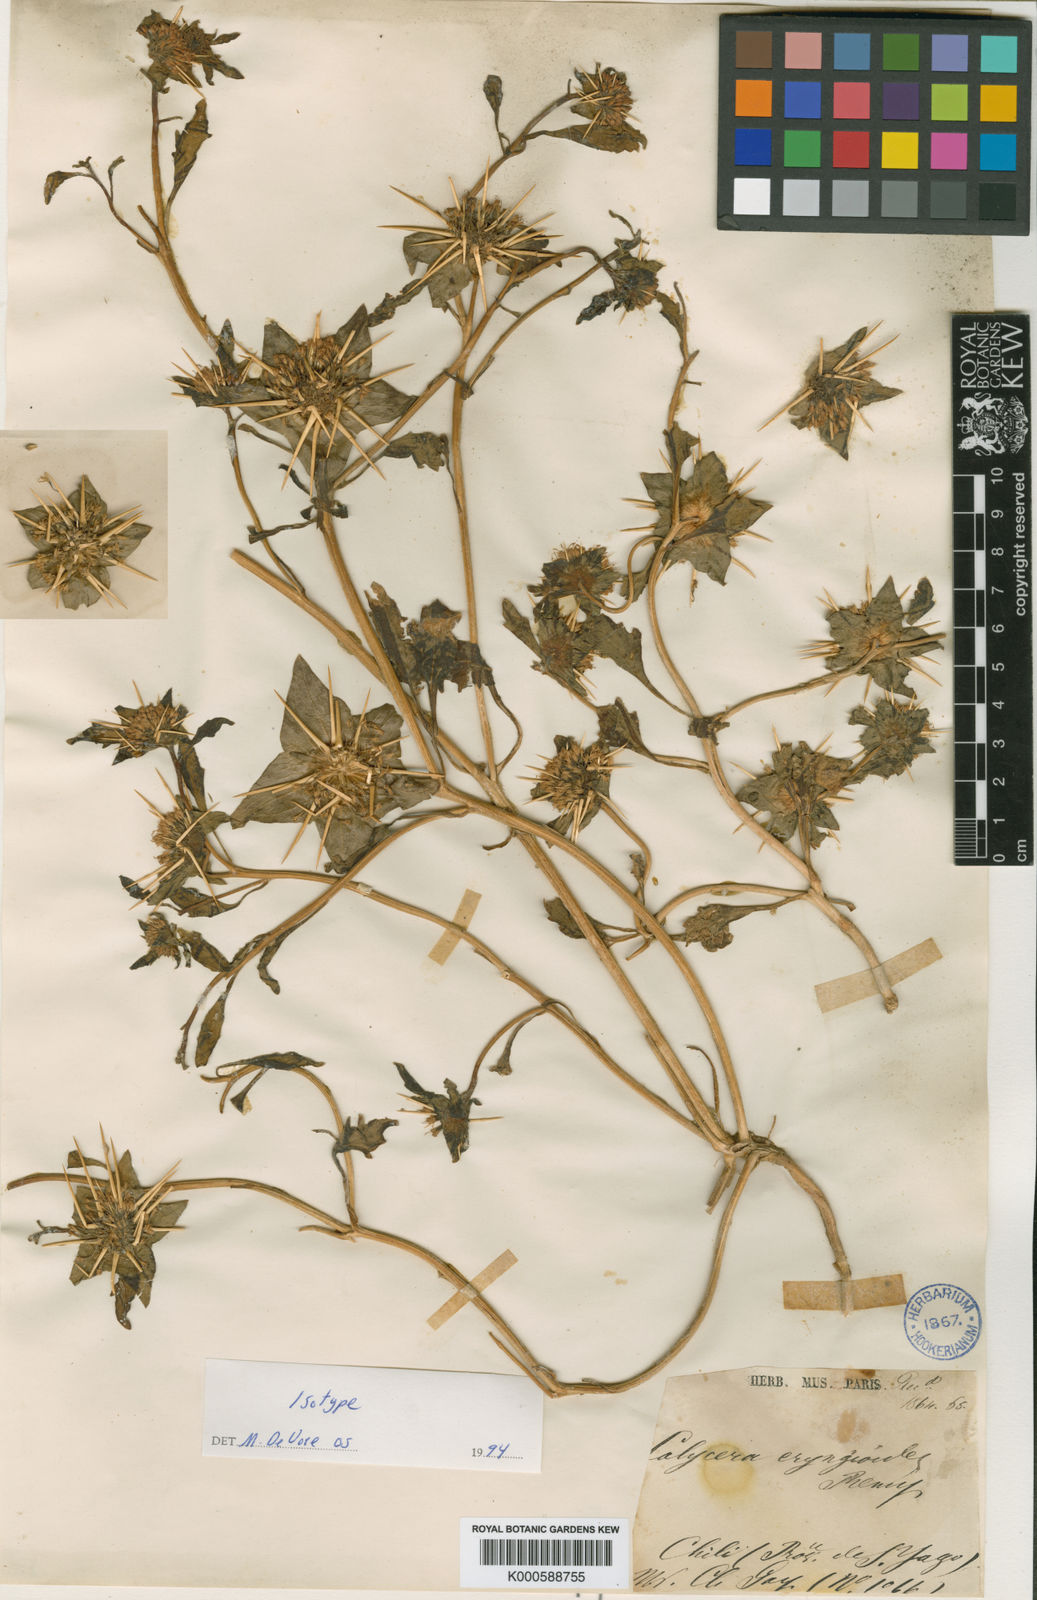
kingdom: Plantae
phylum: Tracheophyta
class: Magnoliopsida
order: Asterales
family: Calyceraceae
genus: Calycera
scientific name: Calycera
